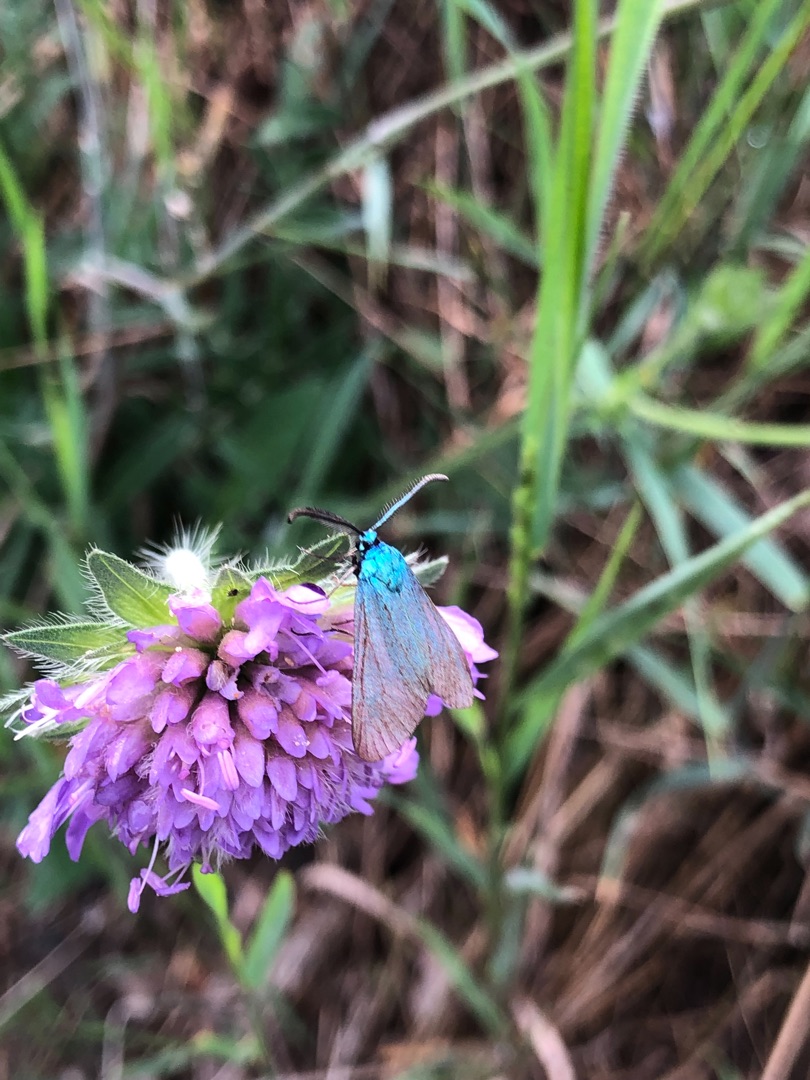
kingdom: Animalia
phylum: Arthropoda
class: Insecta
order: Lepidoptera
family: Zygaenidae
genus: Adscita
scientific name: Adscita statices
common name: Metalvinge
